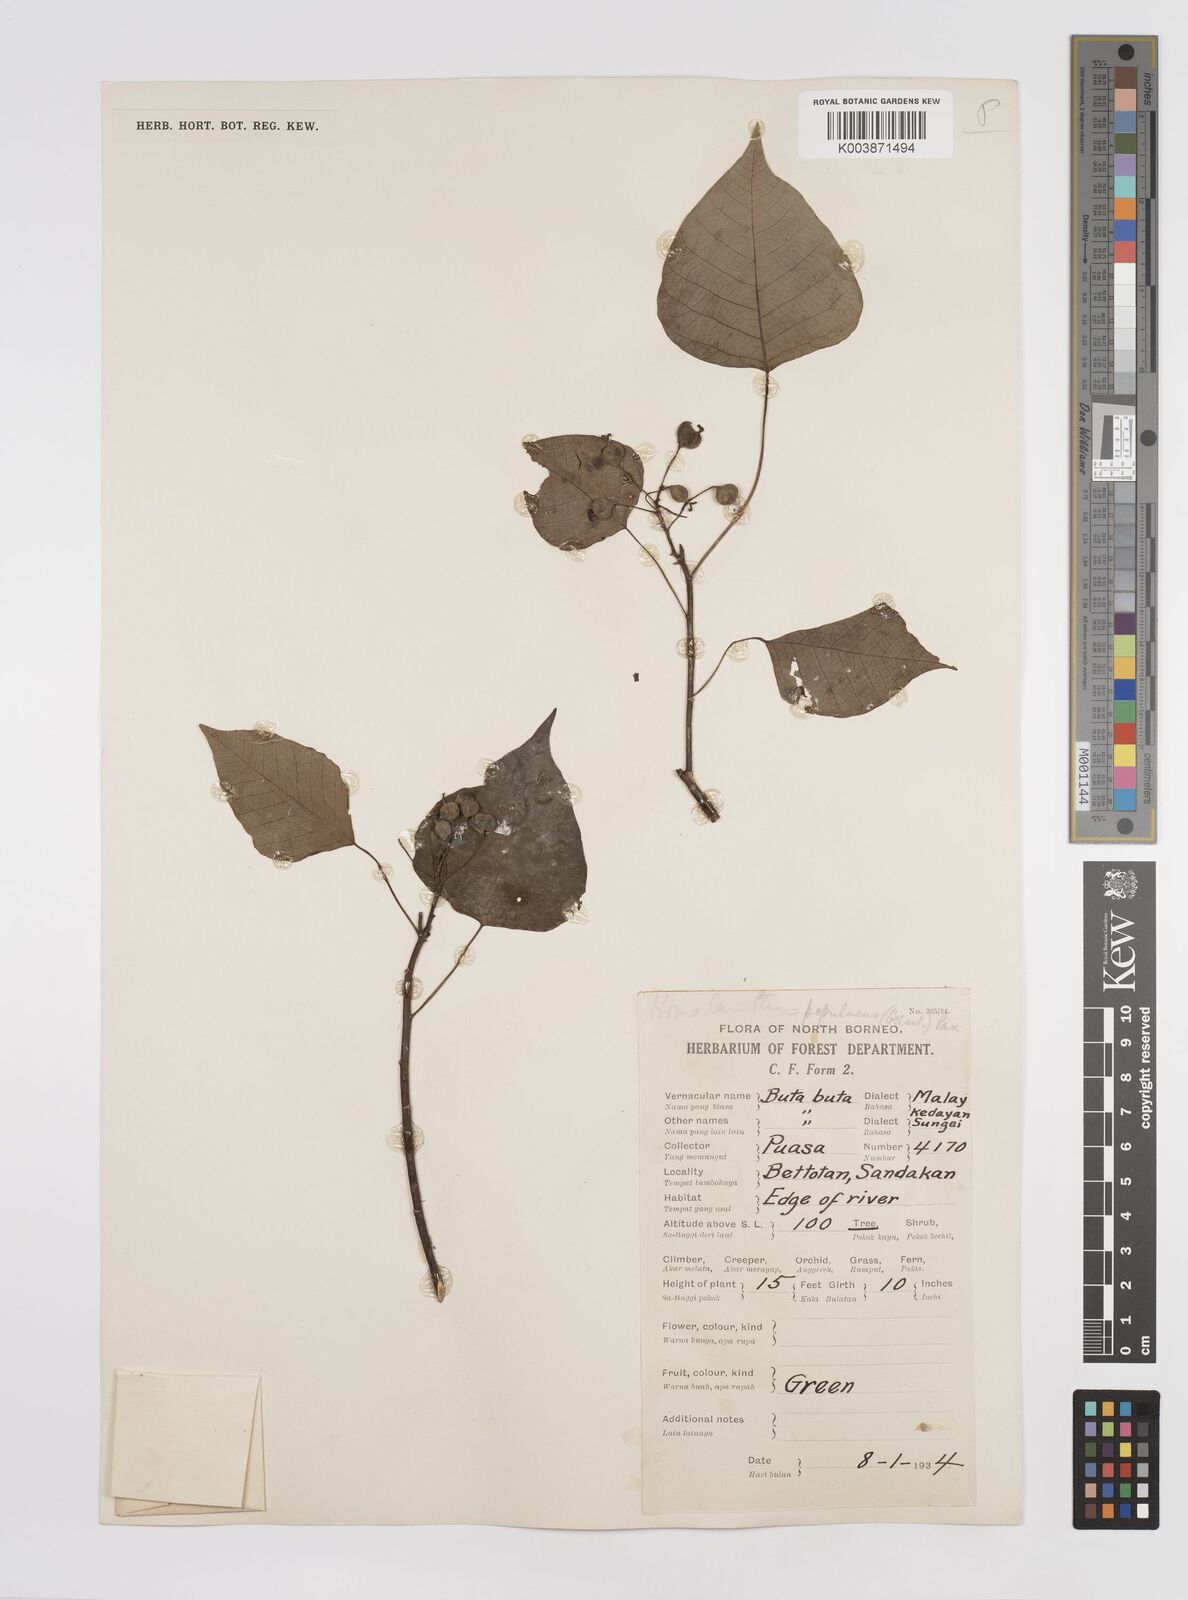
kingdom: Plantae
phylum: Tracheophyta
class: Magnoliopsida
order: Malpighiales
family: Euphorbiaceae
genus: Homalanthus
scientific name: Homalanthus populneus
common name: Spurge
